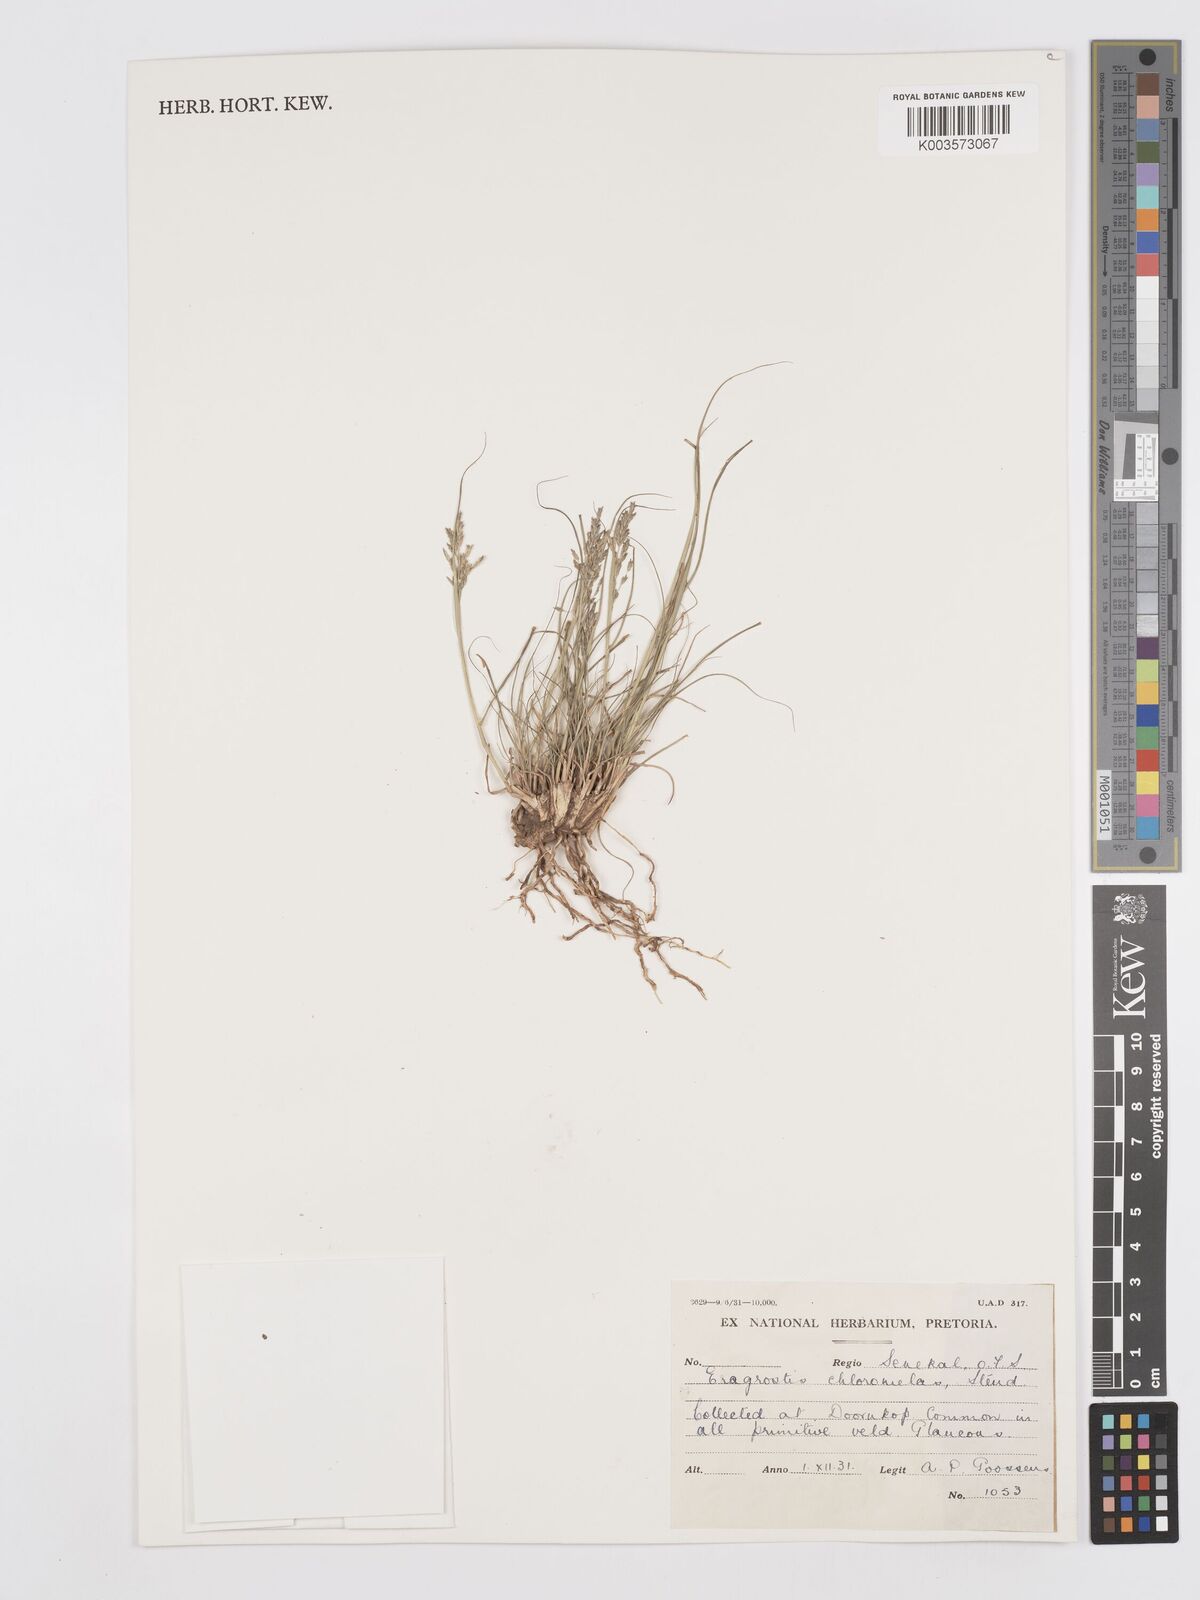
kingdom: Plantae
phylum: Tracheophyta
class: Liliopsida
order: Poales
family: Poaceae
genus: Eragrostis
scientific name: Eragrostis curvula
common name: African love-grass
